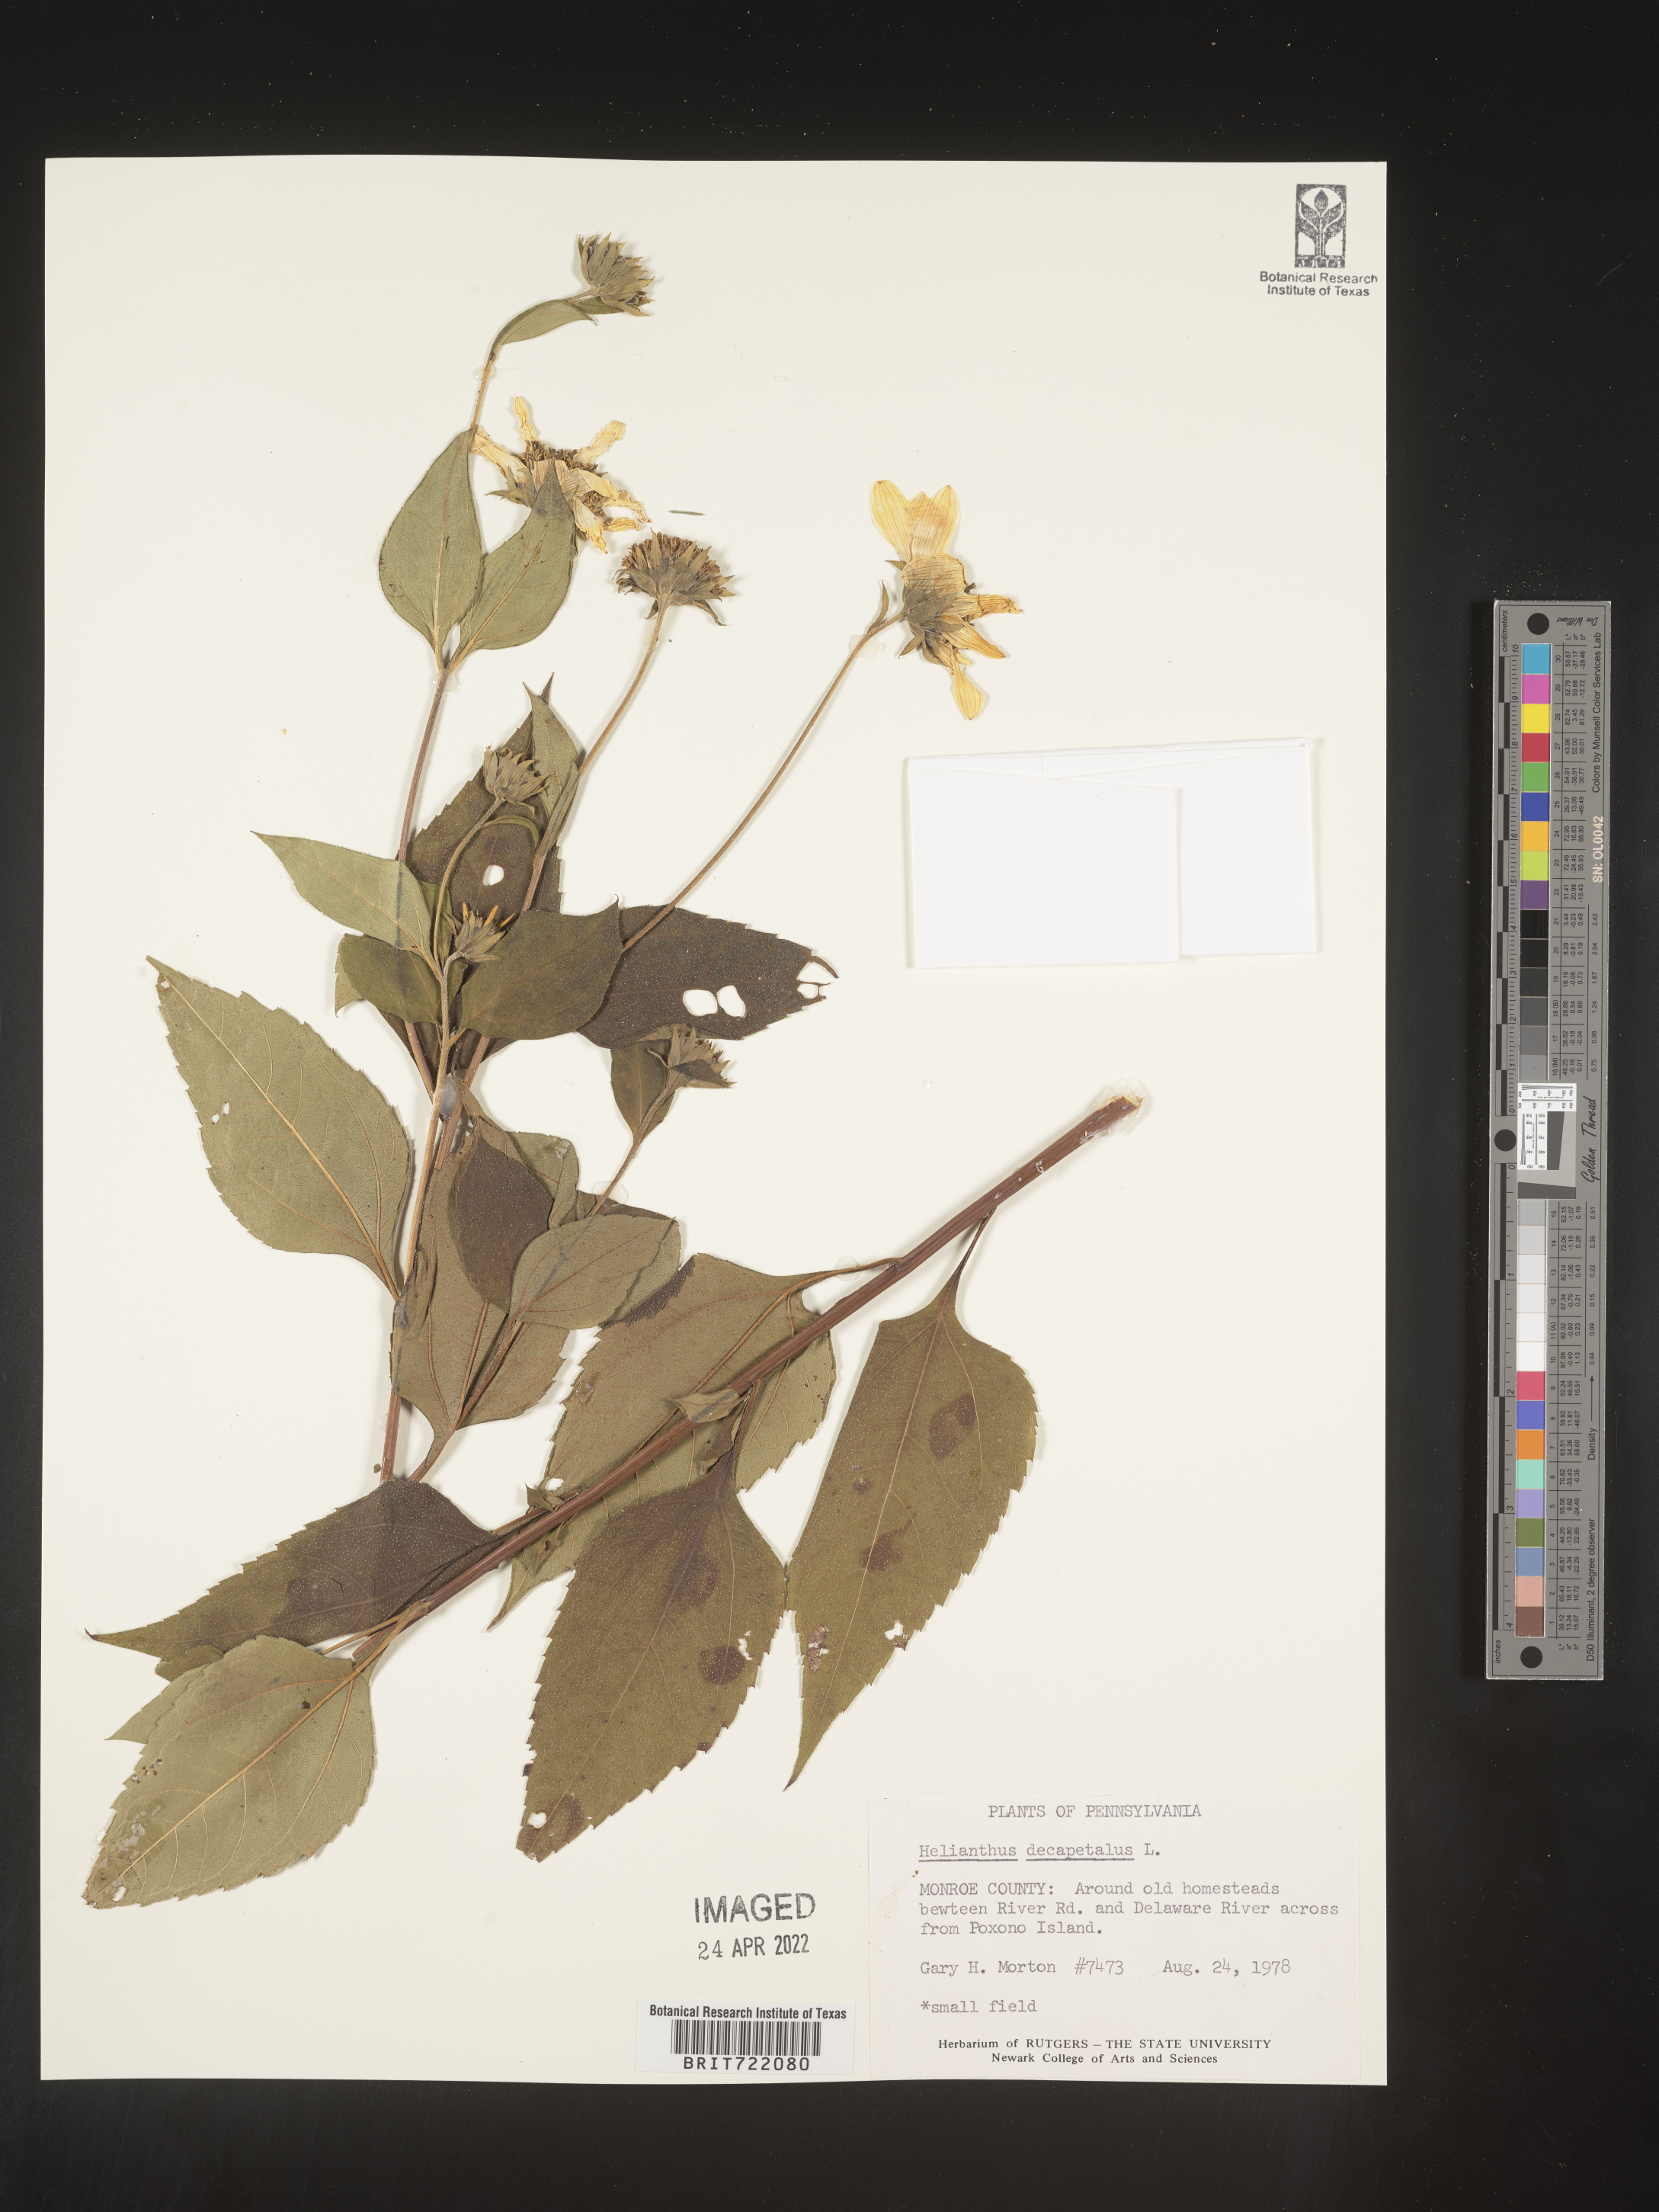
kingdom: Plantae
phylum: Tracheophyta
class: Magnoliopsida
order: Asterales
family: Asteraceae
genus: Helianthus
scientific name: Helianthus decapetalus
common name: Thin-leaved sunflower
